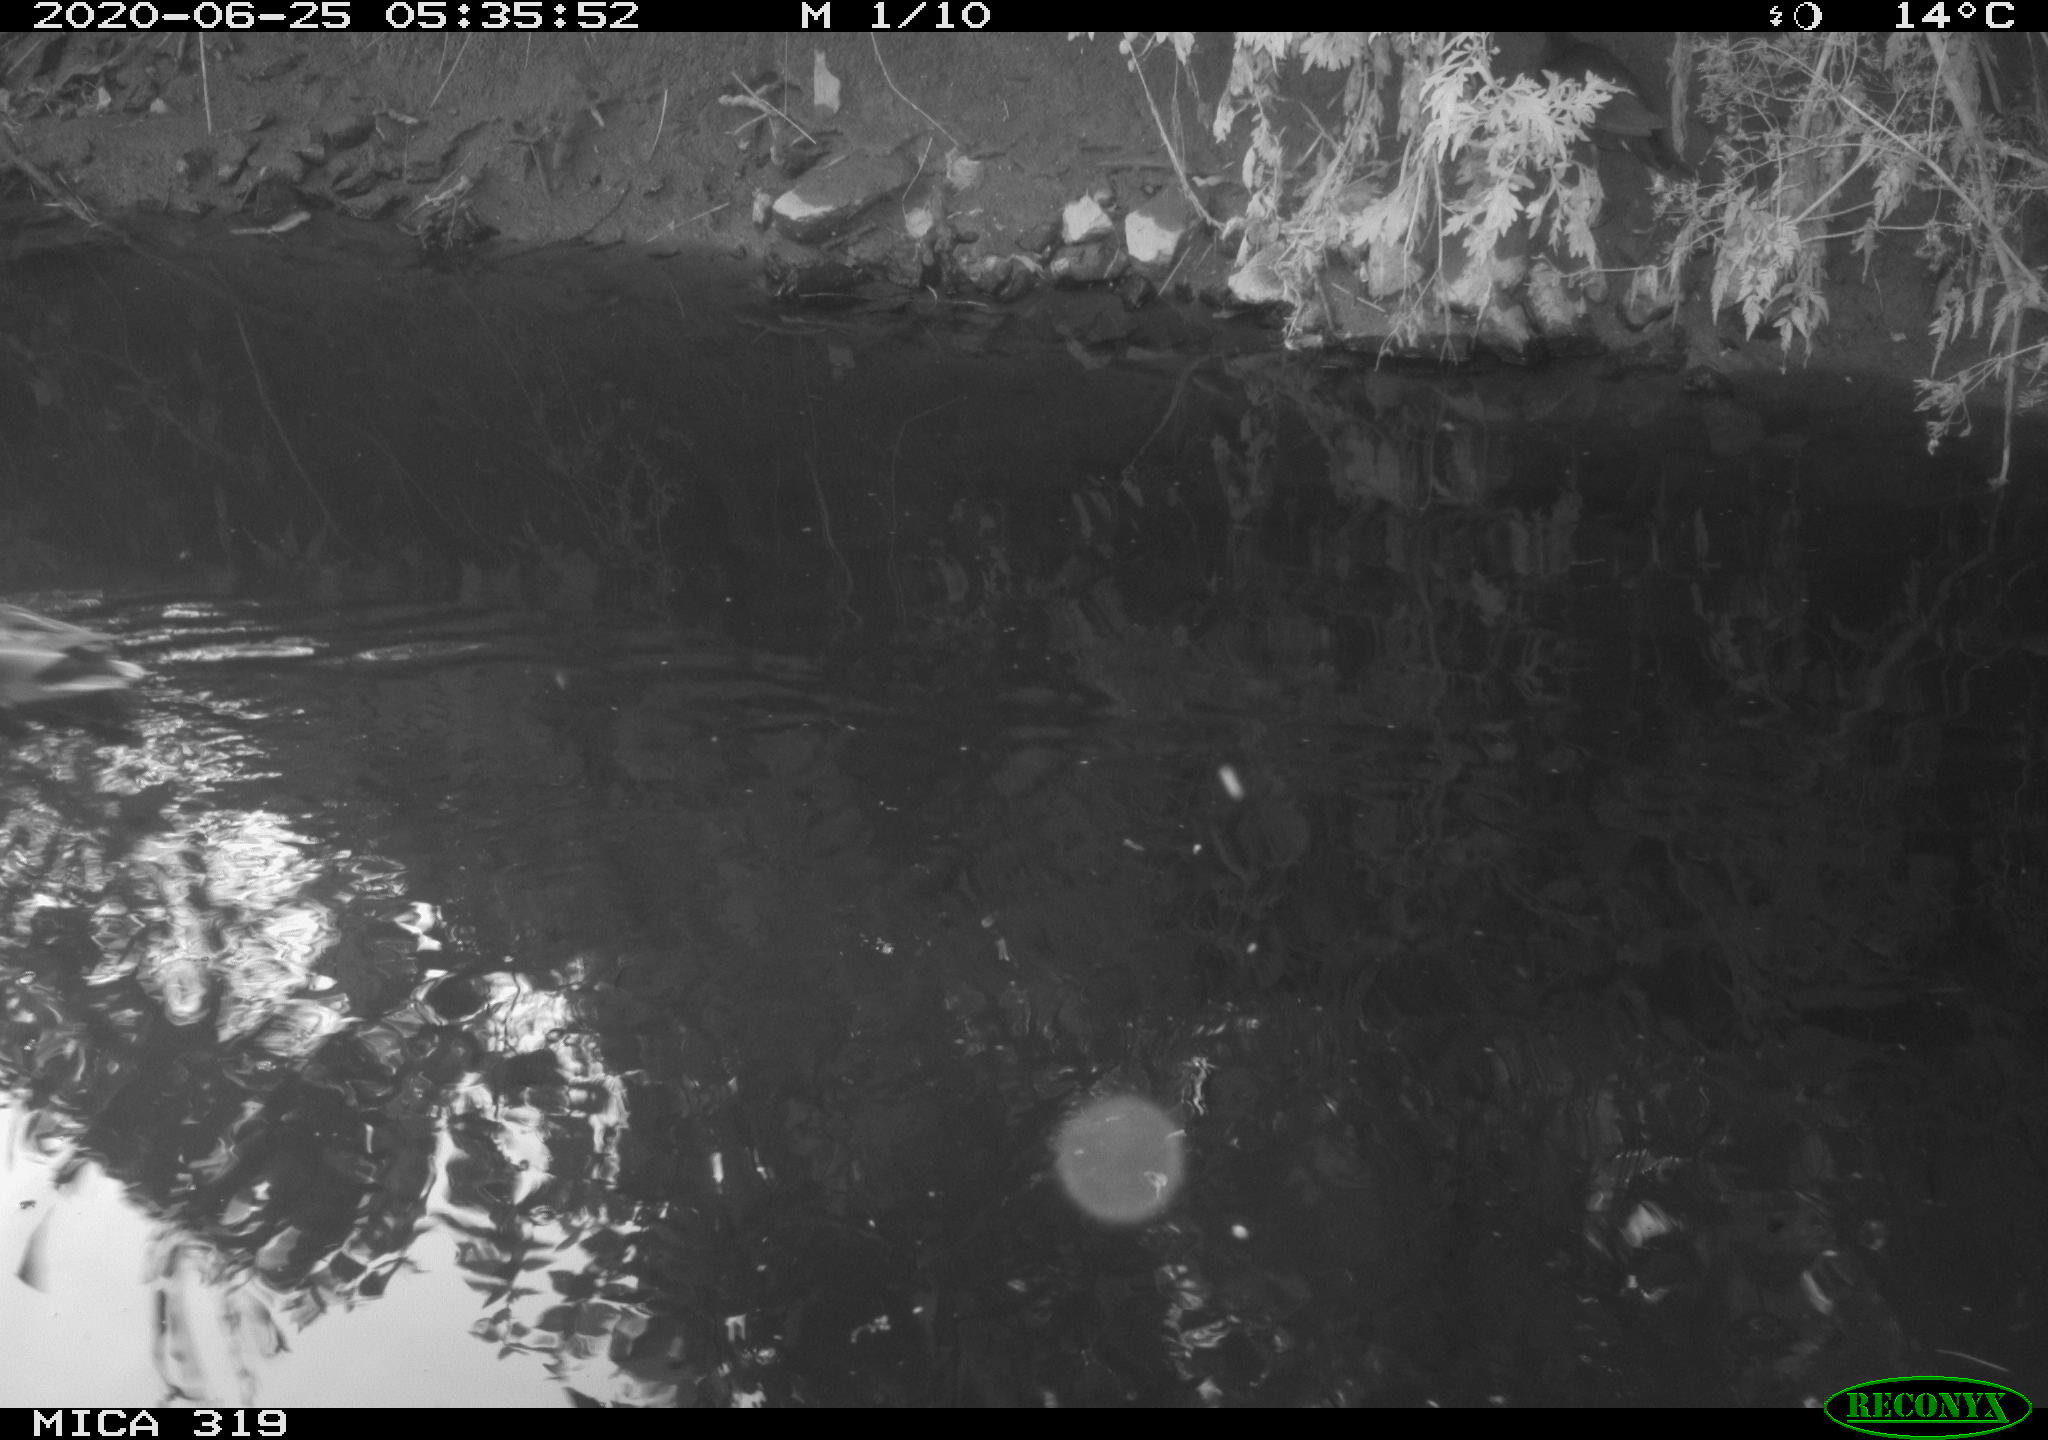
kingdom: Animalia
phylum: Chordata
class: Aves
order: Gruiformes
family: Rallidae
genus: Gallinula
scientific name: Gallinula chloropus
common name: Common moorhen
